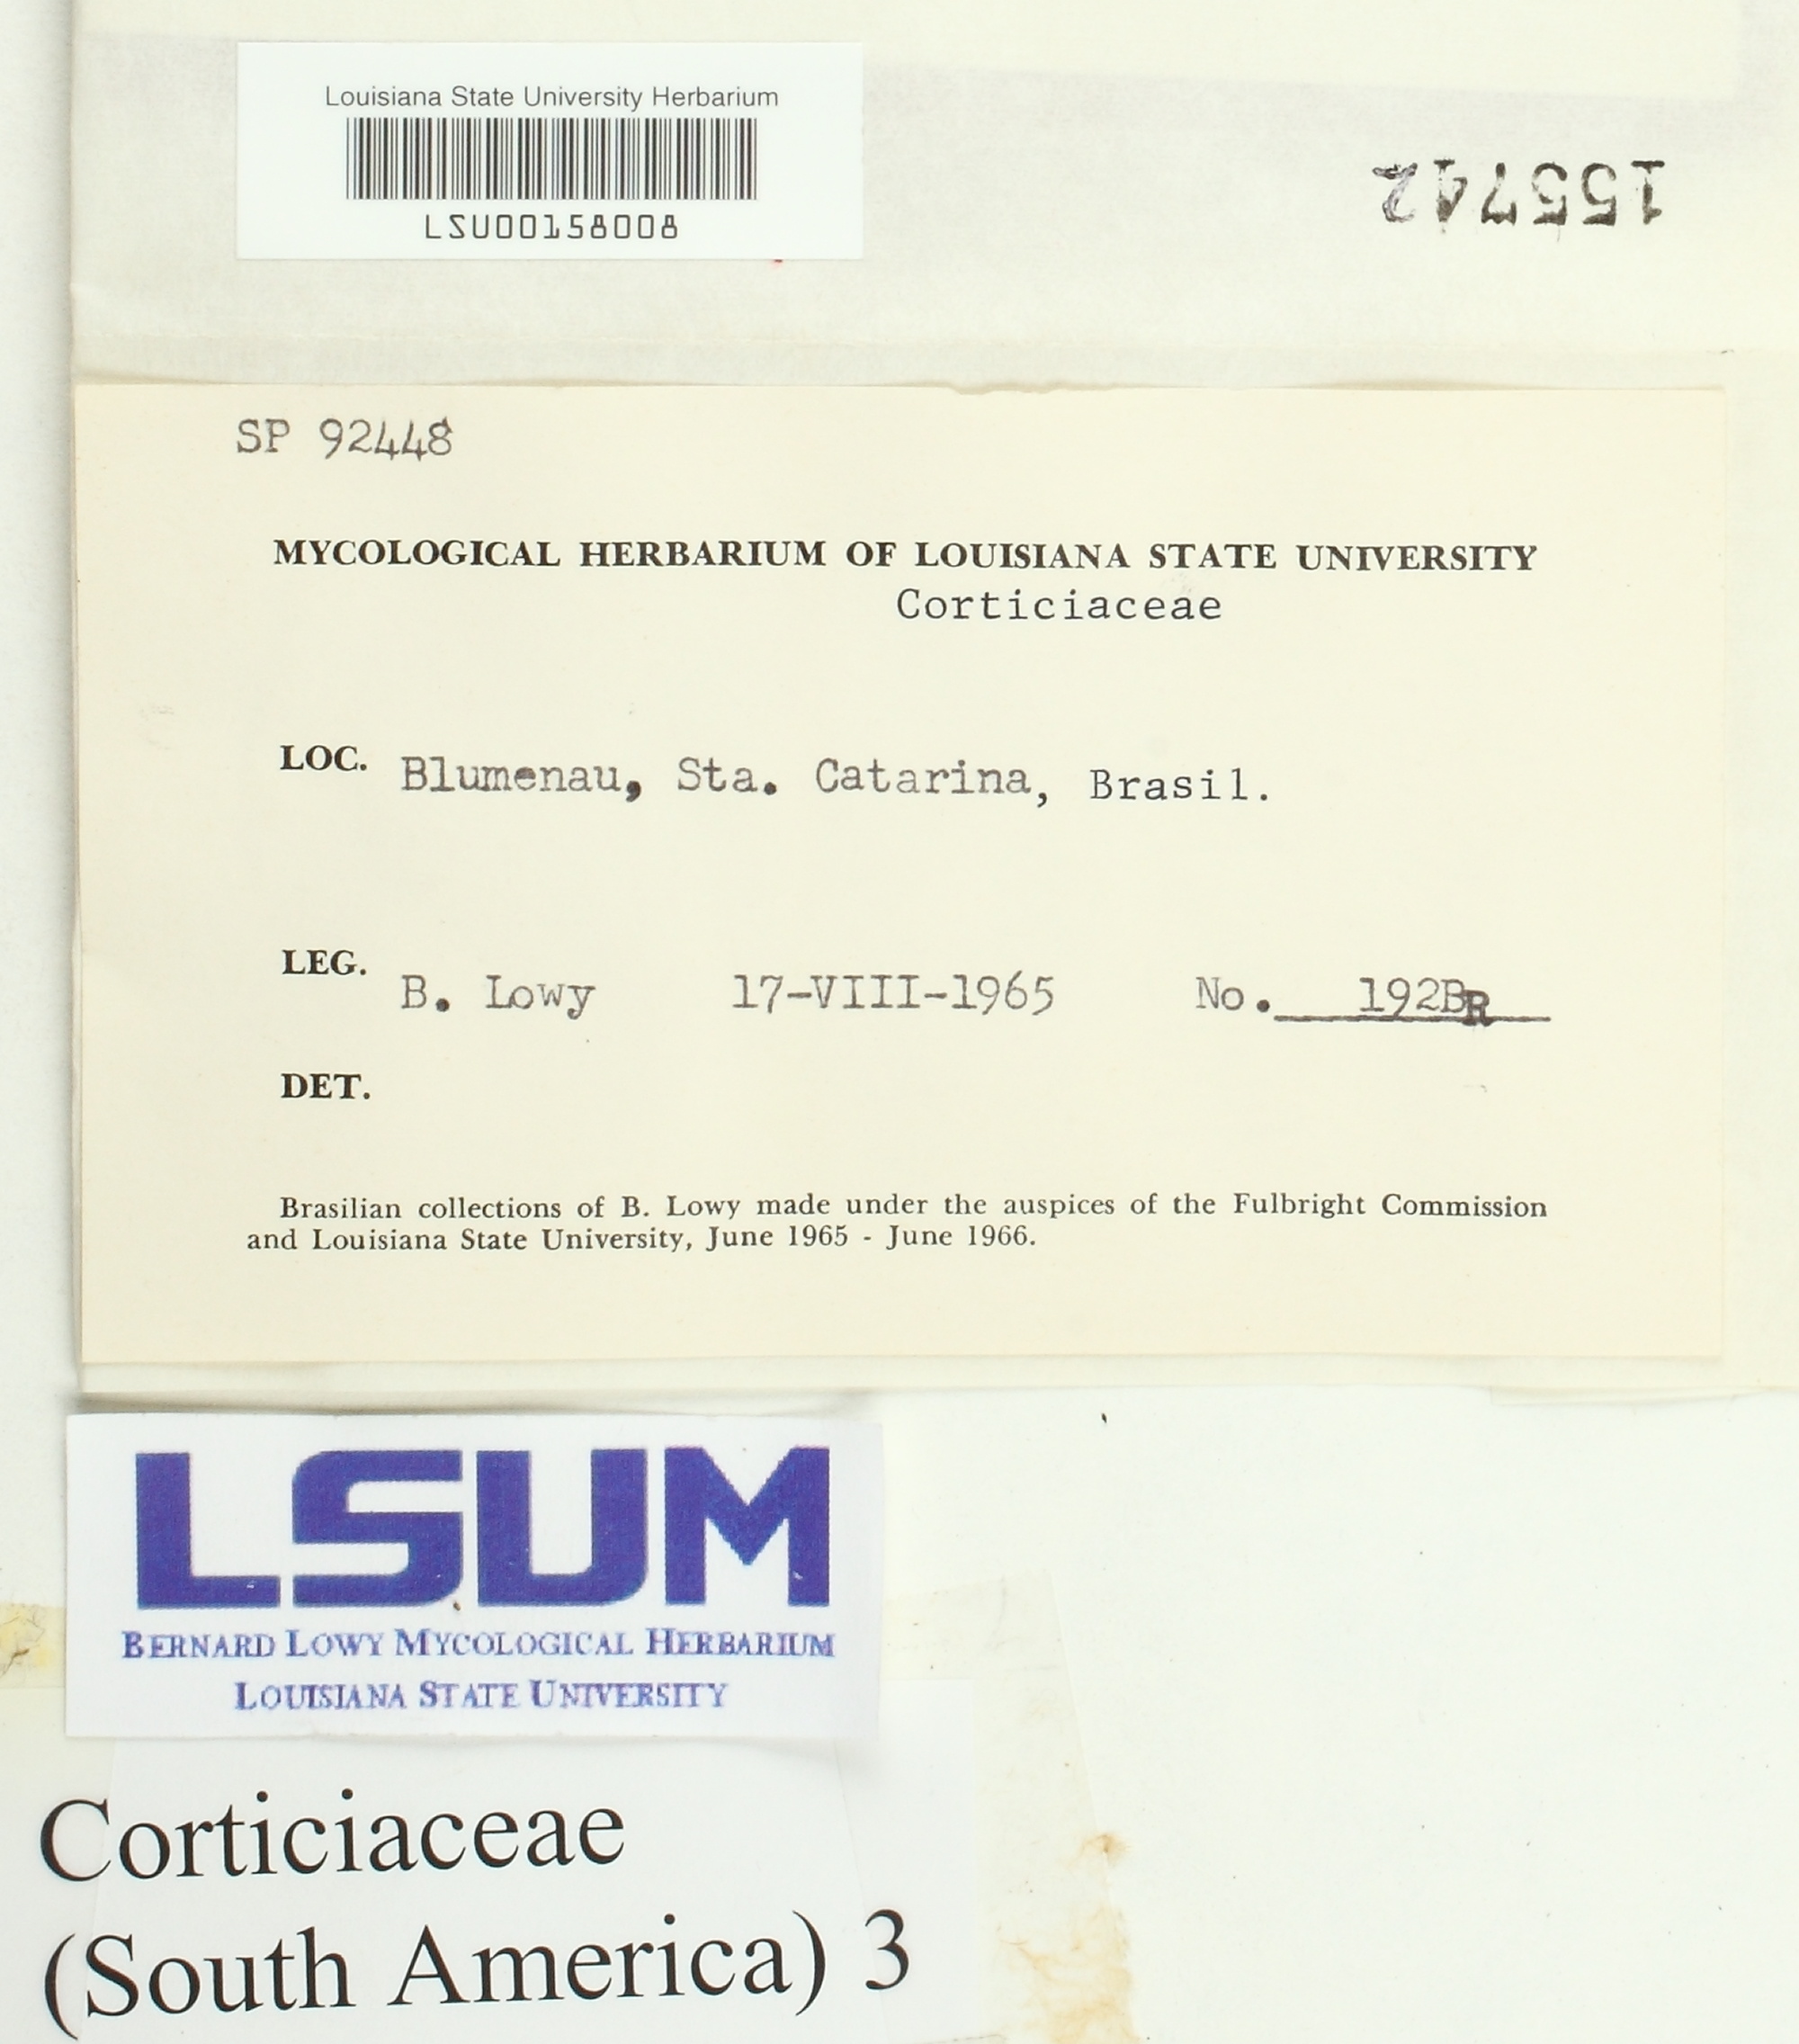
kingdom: Fungi
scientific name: Fungi
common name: Fungi
